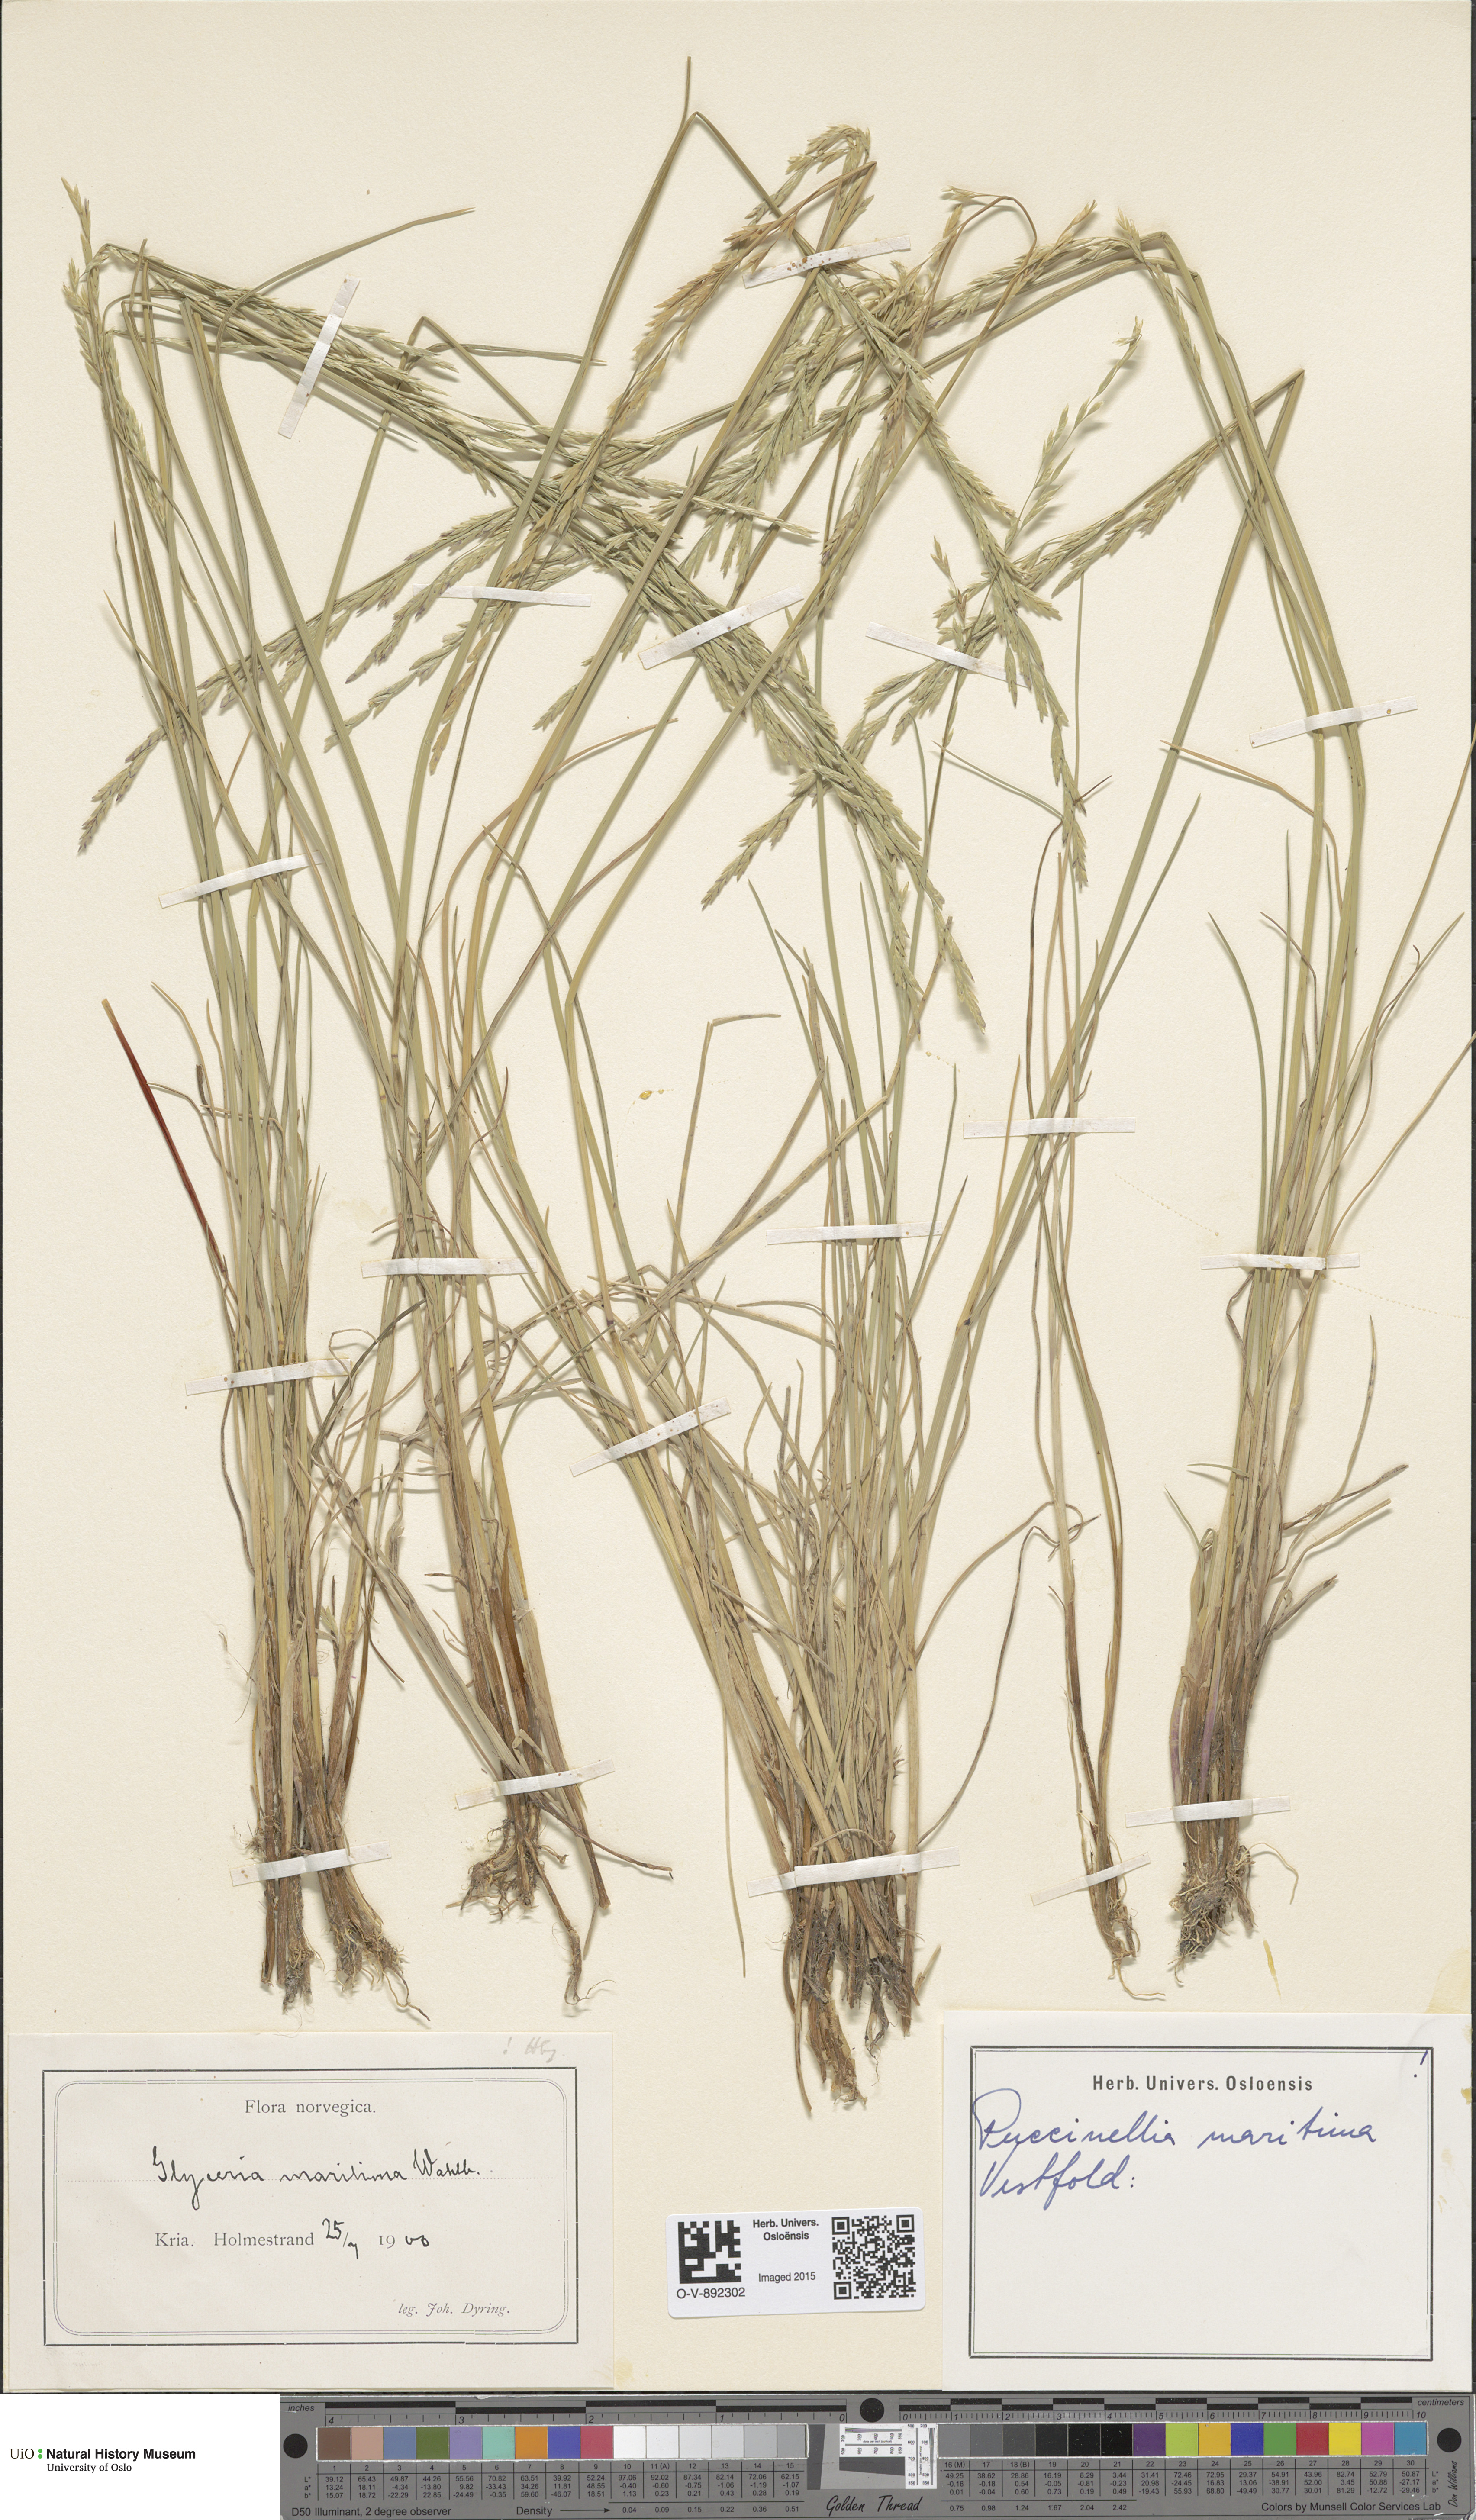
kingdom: Plantae
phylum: Tracheophyta
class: Liliopsida
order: Poales
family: Poaceae
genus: Puccinellia
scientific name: Puccinellia maritima
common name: Common saltmarsh grass
